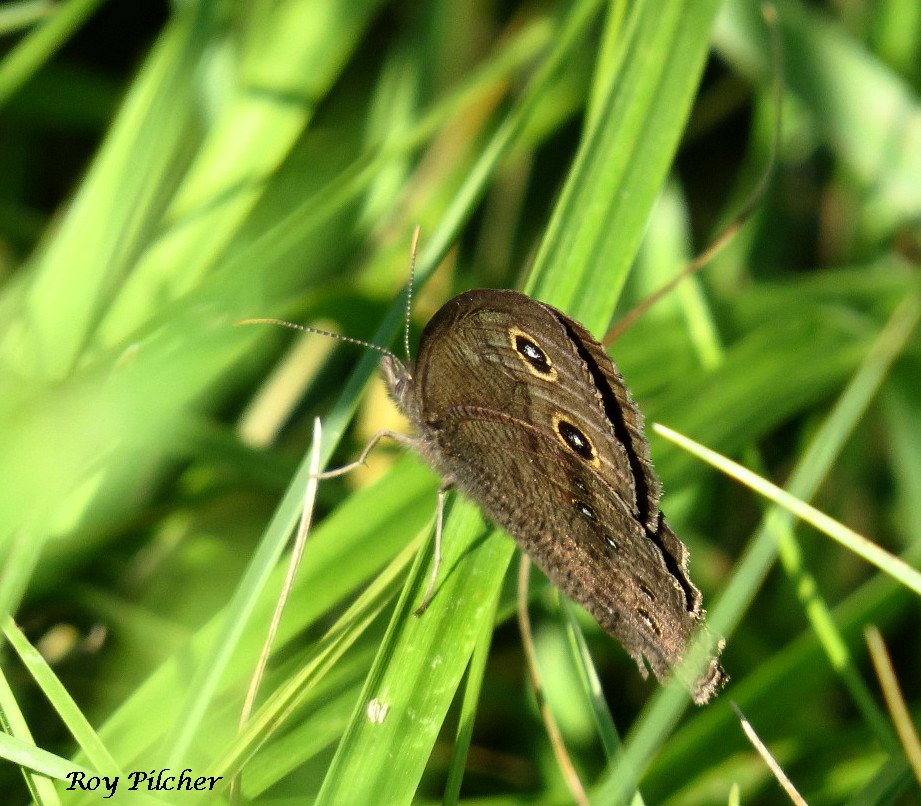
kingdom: Animalia
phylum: Arthropoda
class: Insecta
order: Lepidoptera
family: Nymphalidae
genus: Cercyonis
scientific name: Cercyonis pegala
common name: Common Wood-Nymph
